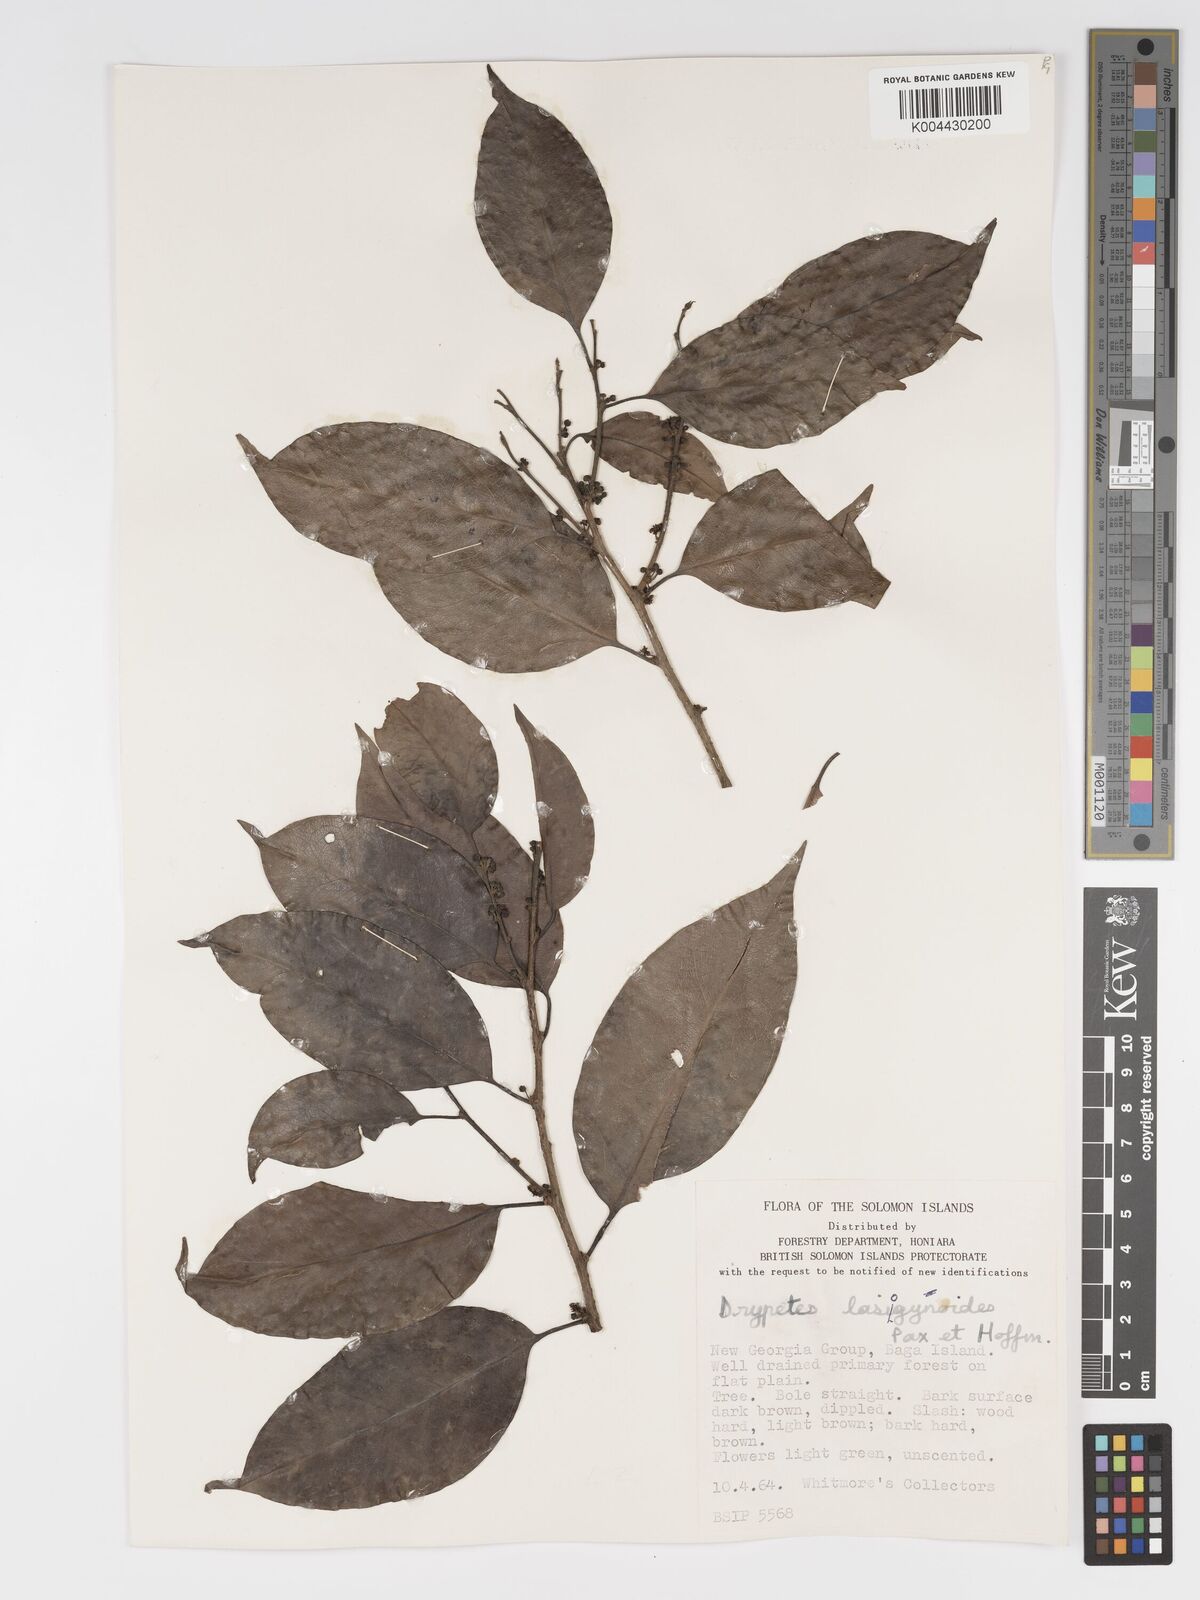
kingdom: Plantae
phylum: Tracheophyta
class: Magnoliopsida
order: Malpighiales
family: Putranjivaceae
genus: Drypetes
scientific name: Drypetes lasiogynoides
